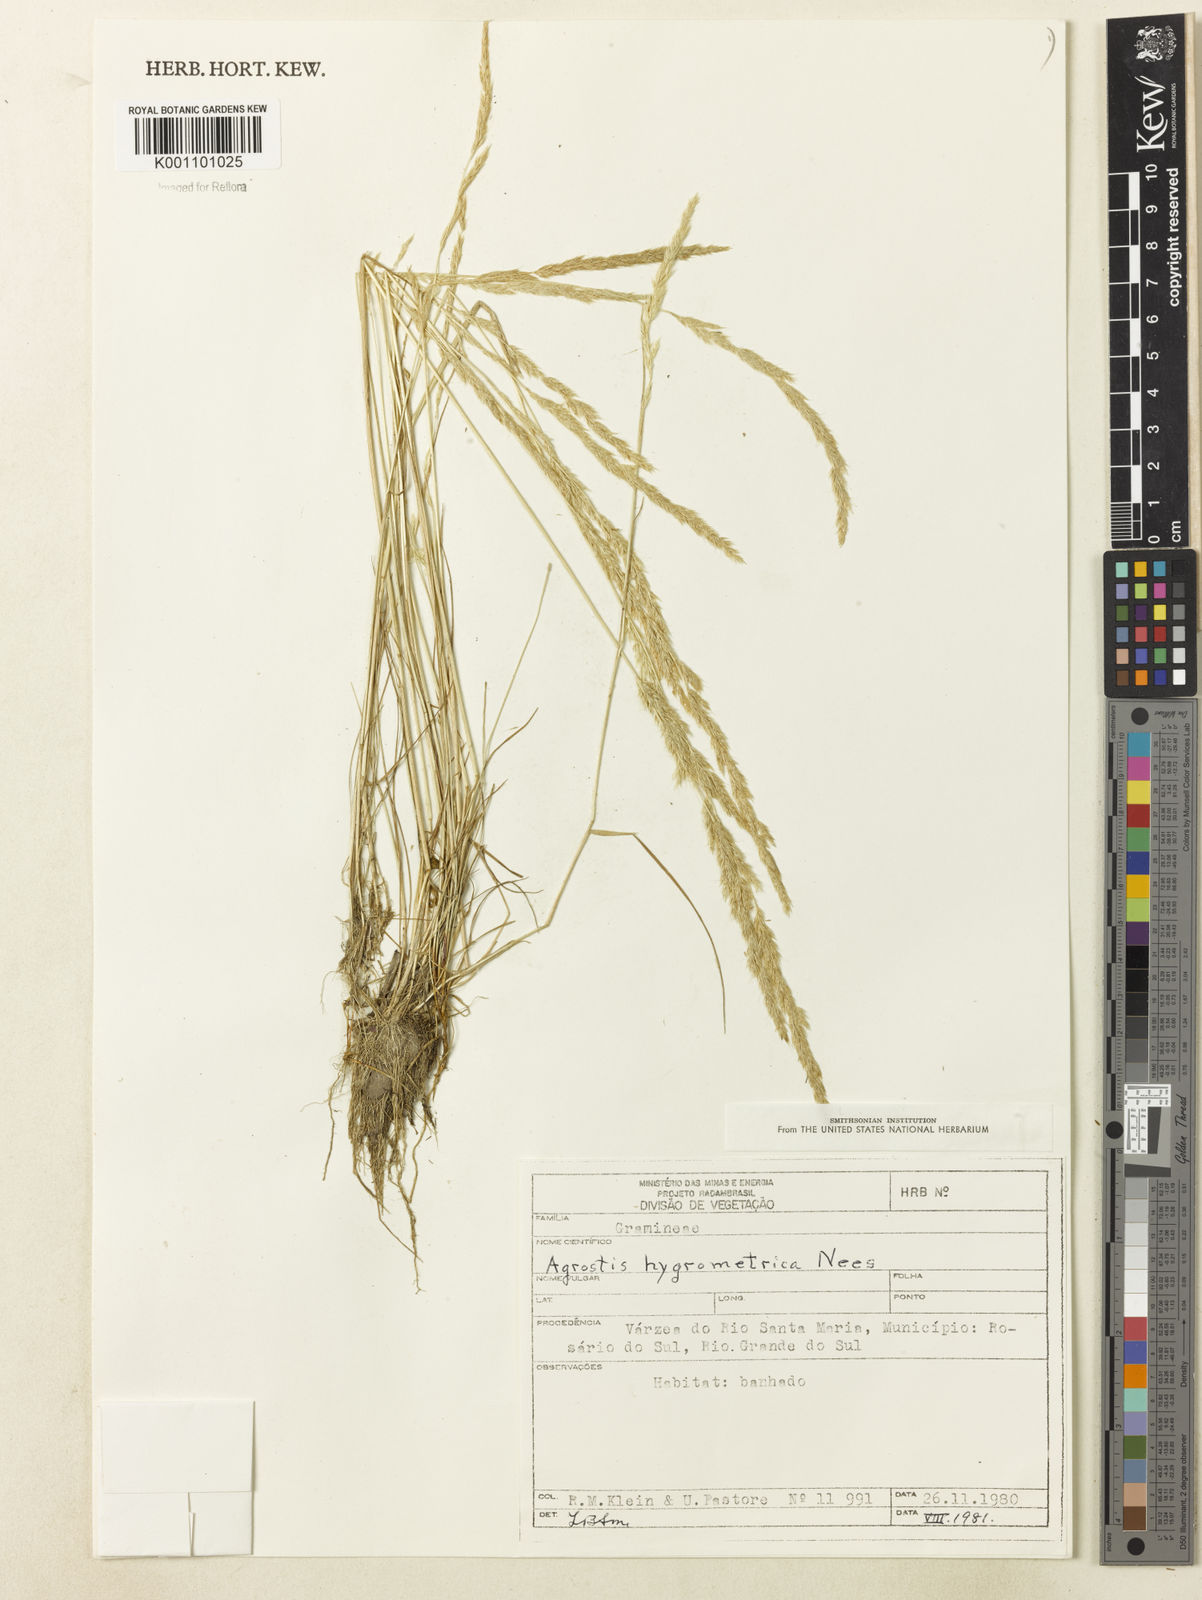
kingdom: Plantae
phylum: Tracheophyta
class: Liliopsida
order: Poales
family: Poaceae
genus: Agrostis
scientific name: Agrostis hygrometrica
